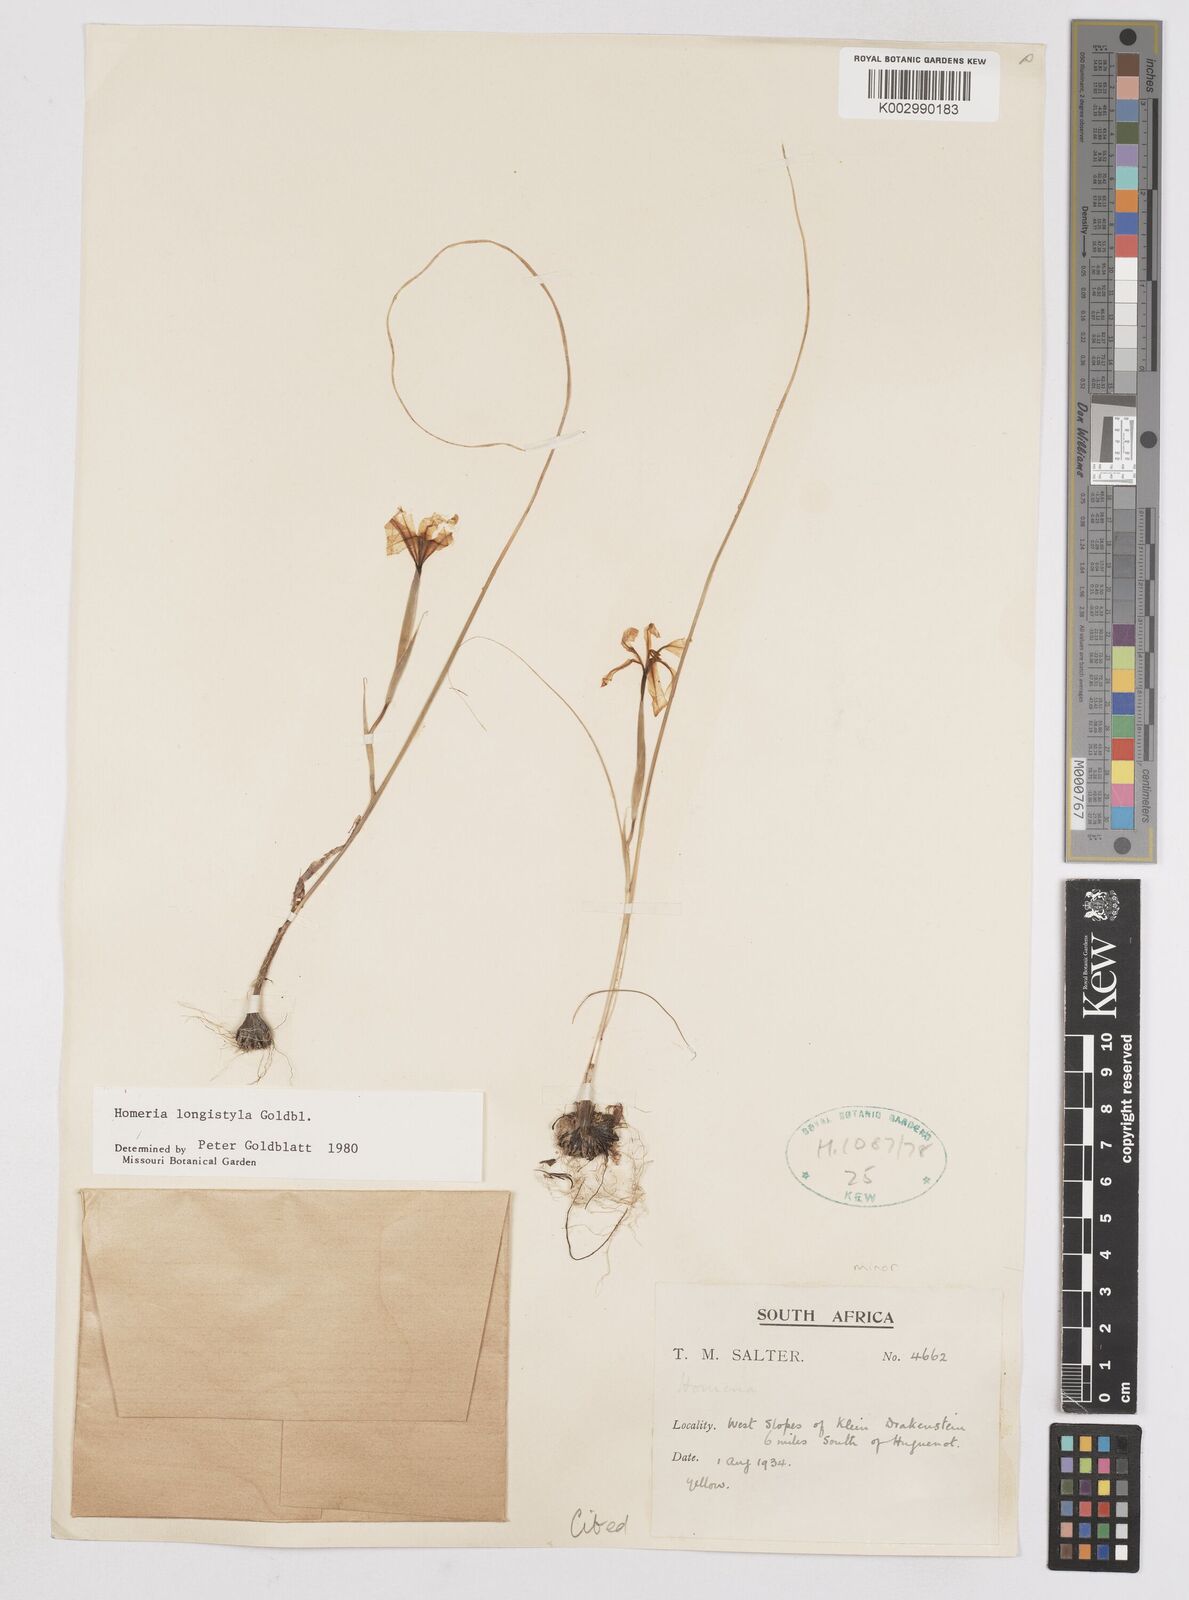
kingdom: Plantae
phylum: Tracheophyta
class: Liliopsida
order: Asparagales
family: Iridaceae
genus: Moraea
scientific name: Moraea longistyla
